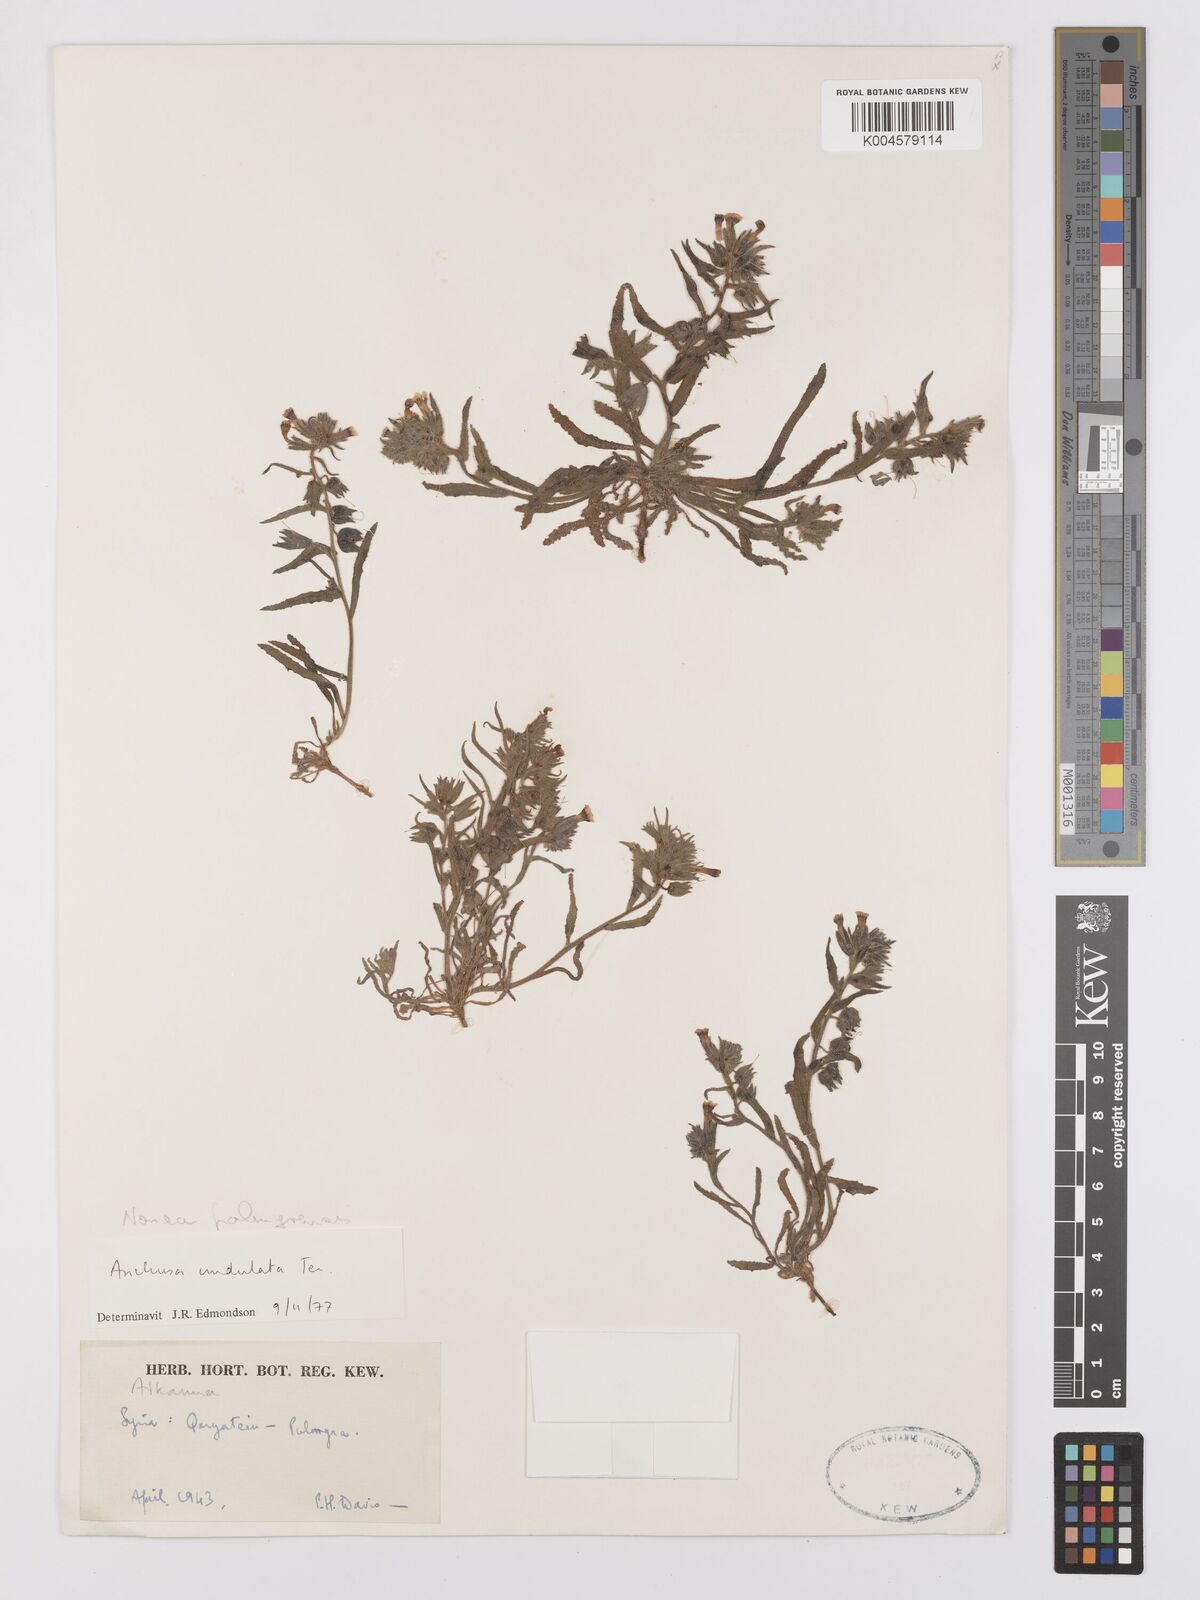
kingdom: Plantae
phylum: Tracheophyta
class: Magnoliopsida
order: Boraginales
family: Boraginaceae
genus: Nonea
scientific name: Nonea palmyrensis
